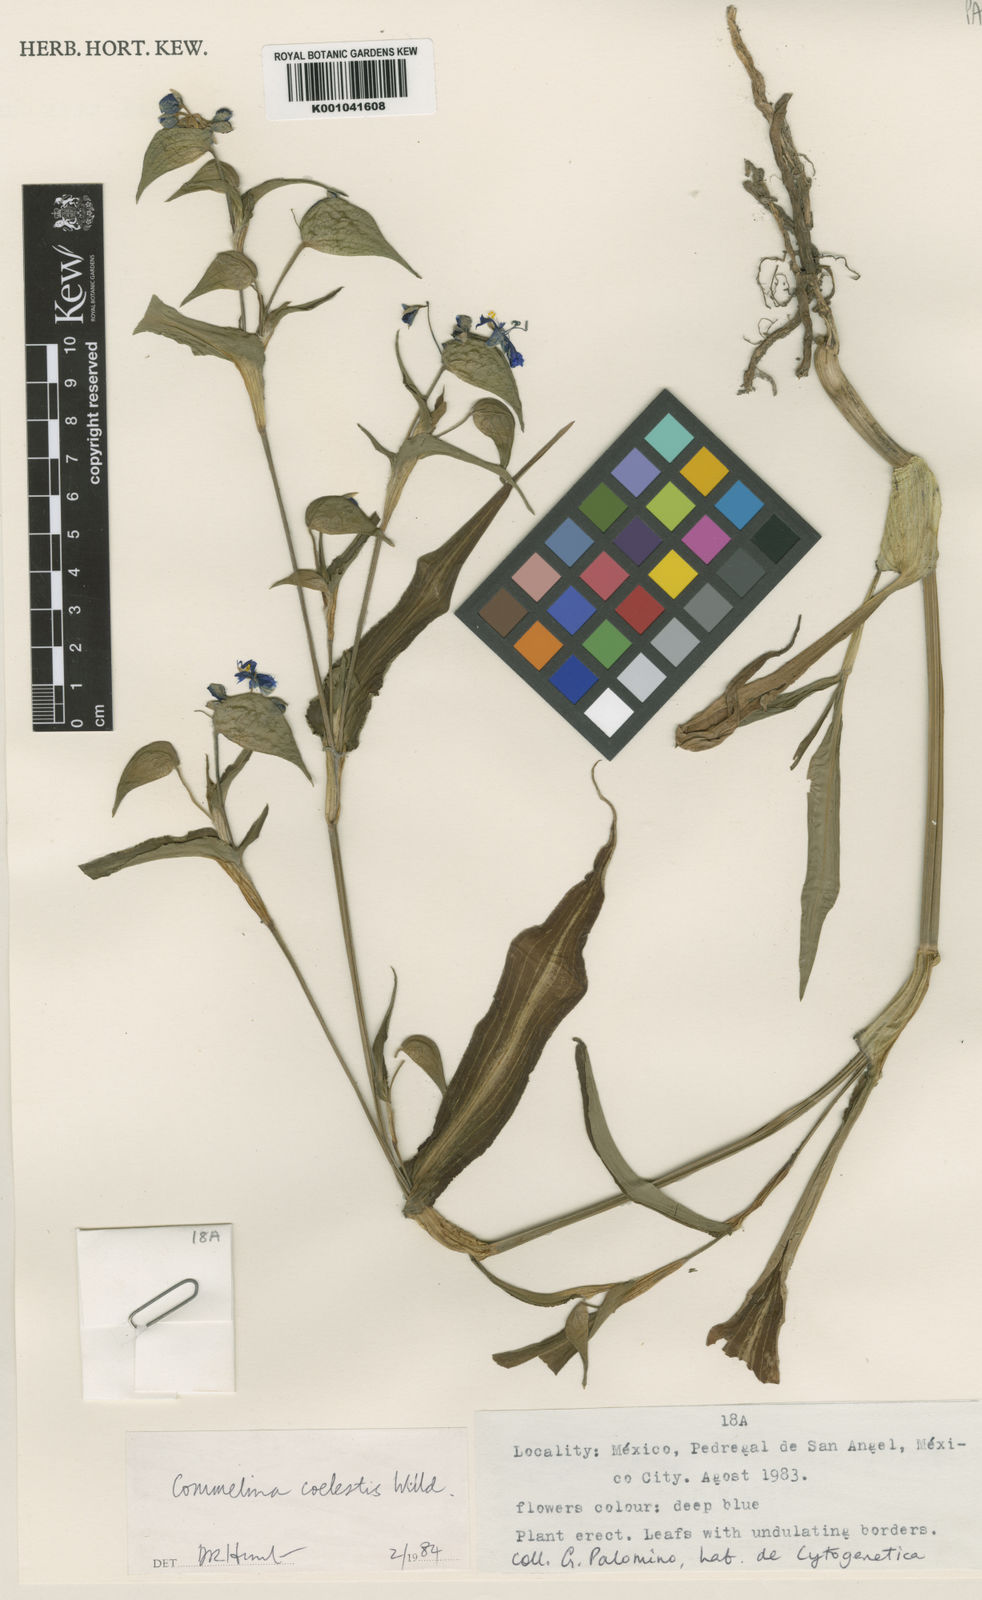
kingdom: Plantae
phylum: Tracheophyta
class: Liliopsida
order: Commelinales
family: Commelinaceae
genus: Commelina
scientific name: Commelina tuberosa
